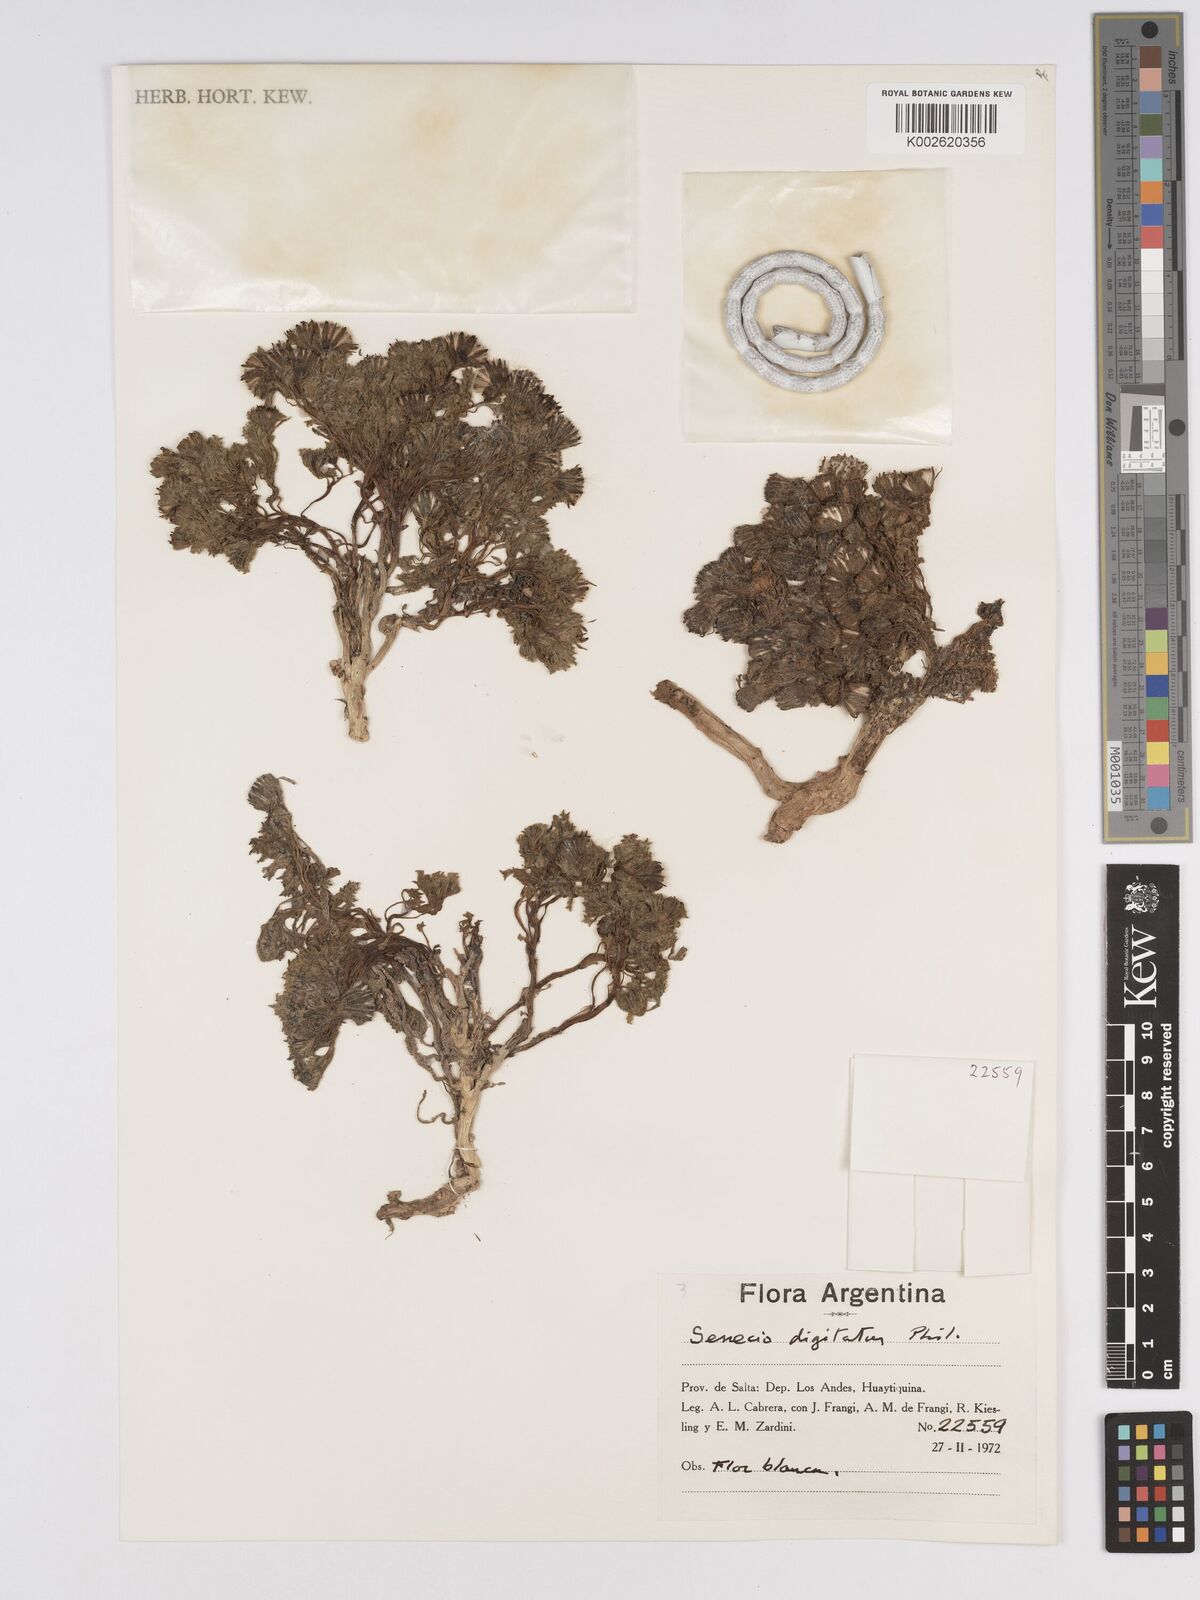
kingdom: Plantae
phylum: Tracheophyta
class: Magnoliopsida
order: Asterales
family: Asteraceae
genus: Senecio
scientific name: Senecio digitatus
